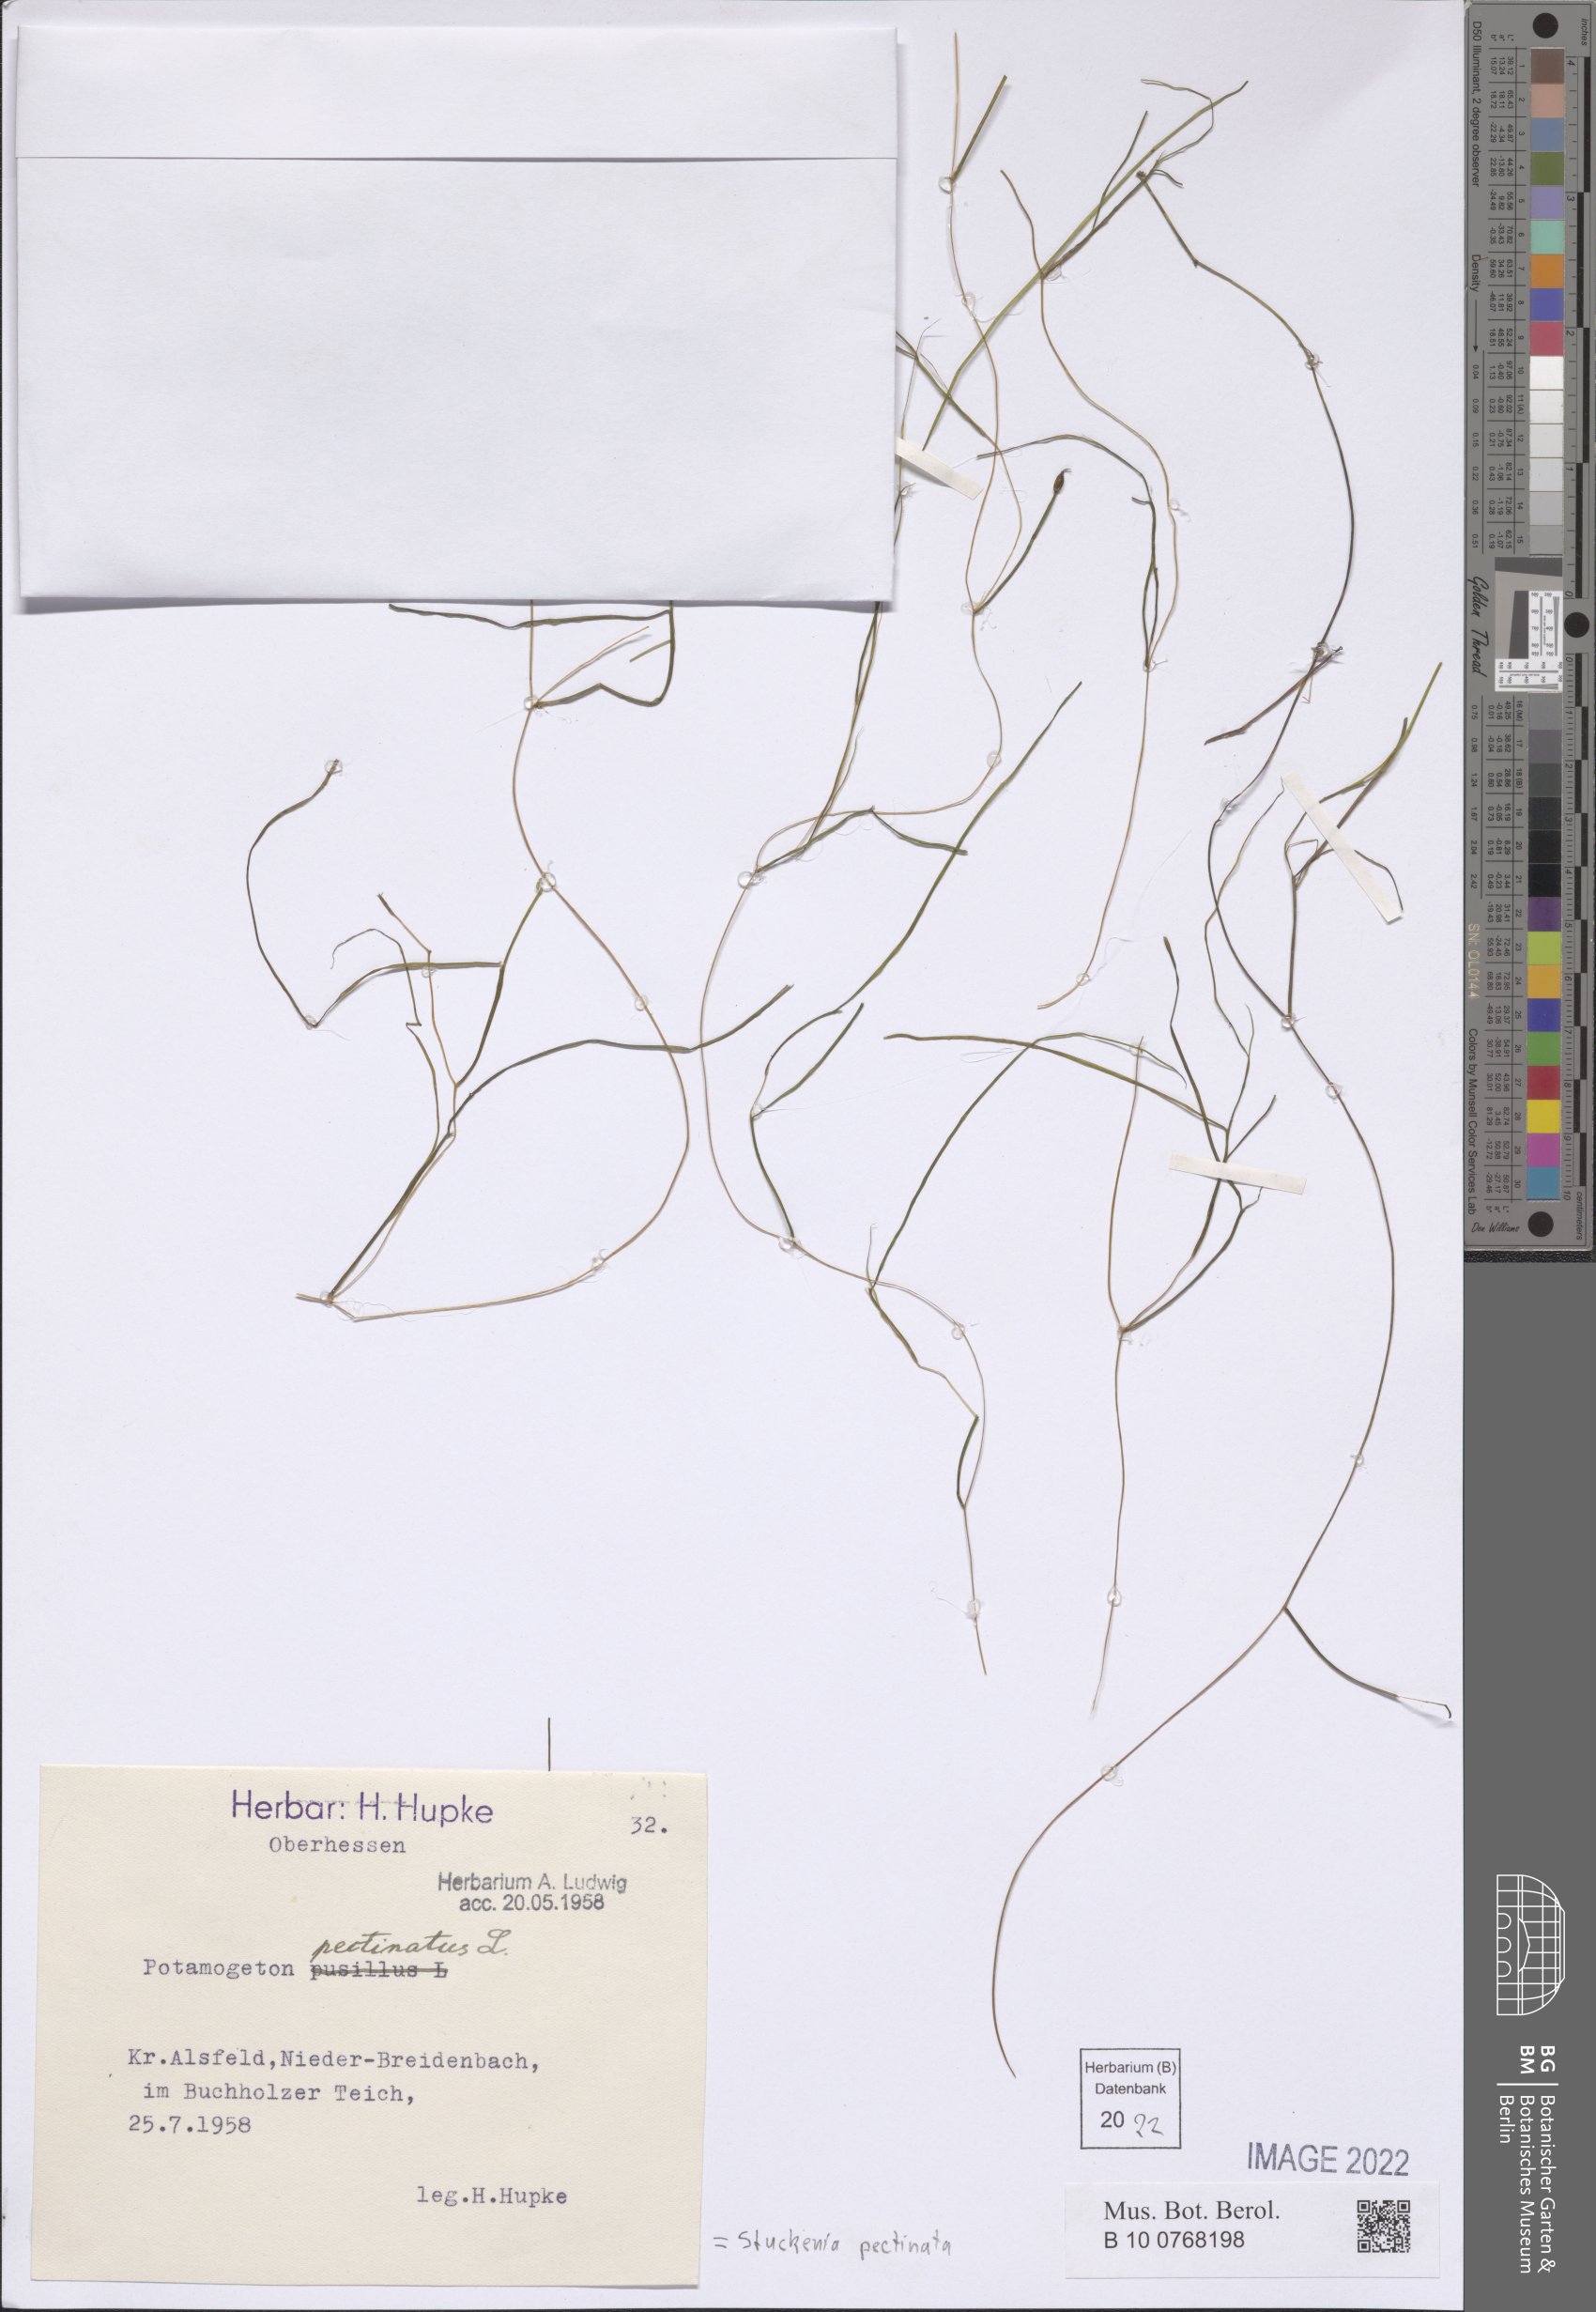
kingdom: Plantae
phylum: Tracheophyta
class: Liliopsida
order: Alismatales
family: Potamogetonaceae
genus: Stuckenia
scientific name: Stuckenia pectinata
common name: Sago pondweed
